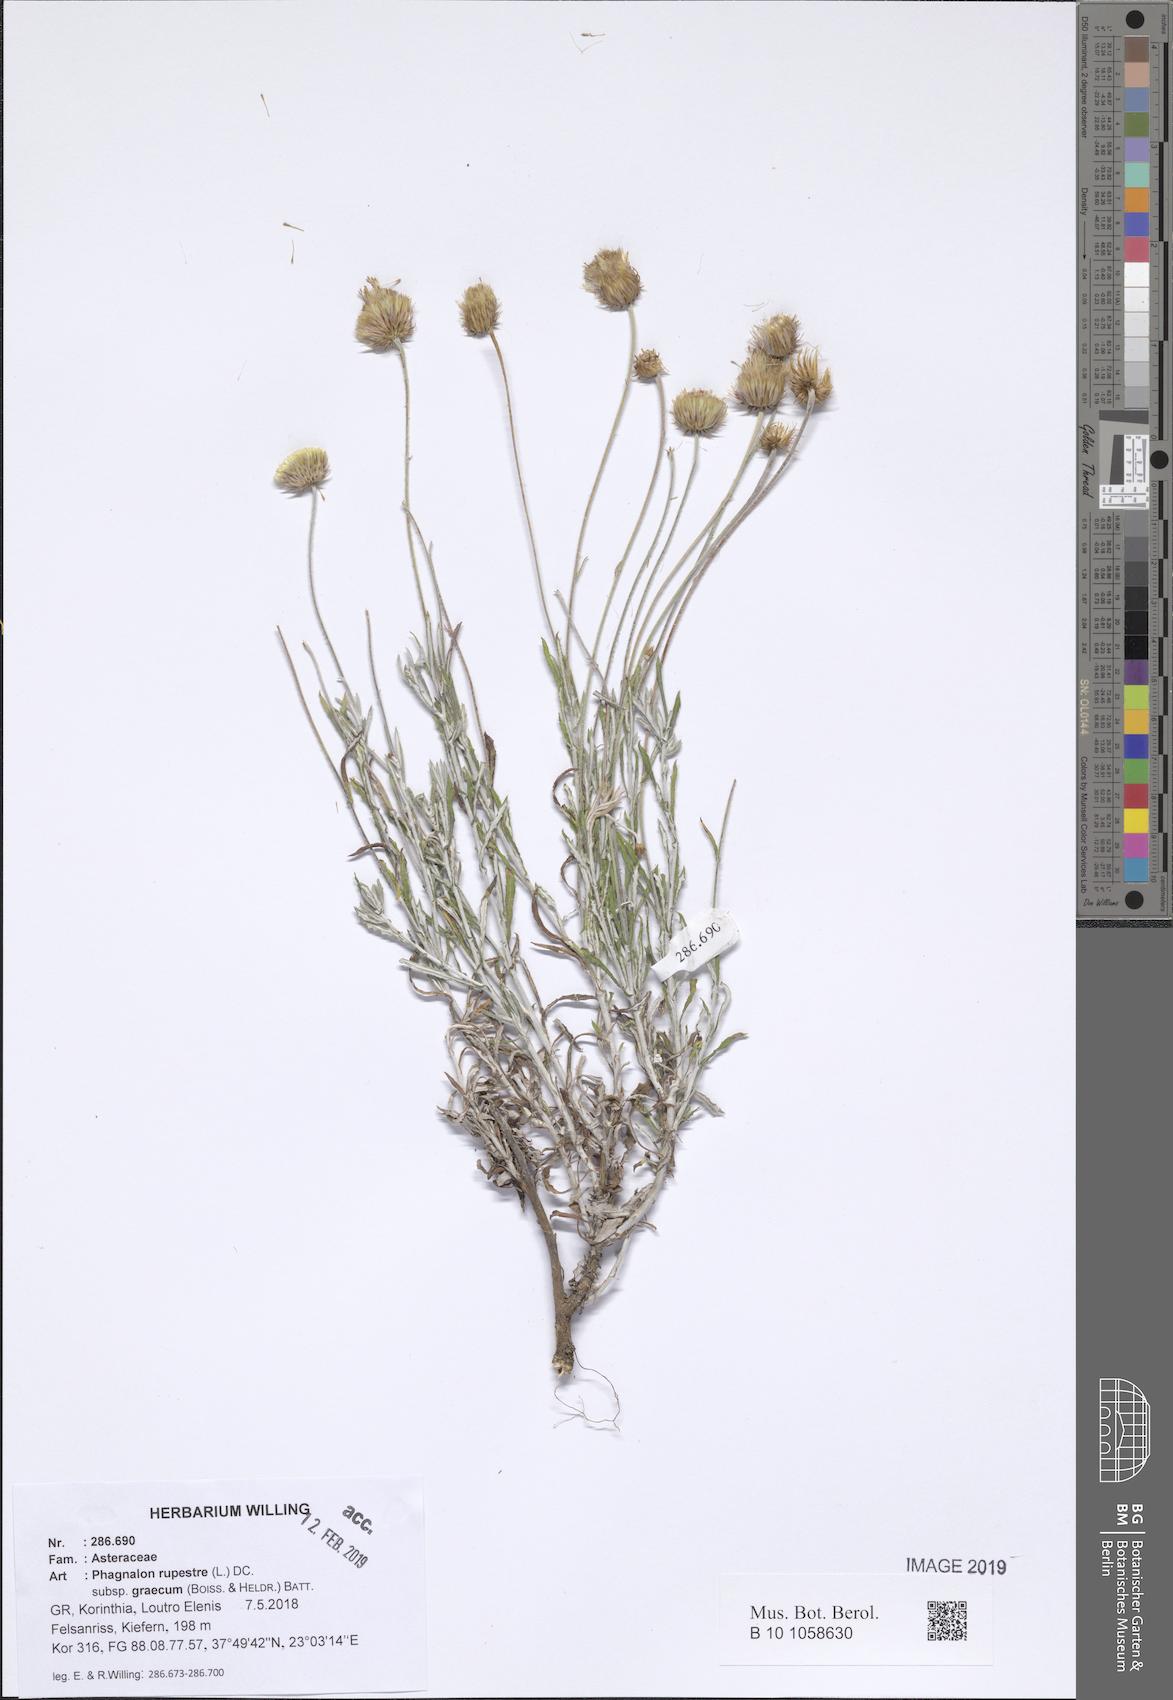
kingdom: Plantae
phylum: Tracheophyta
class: Magnoliopsida
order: Asterales
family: Asteraceae
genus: Phagnalon
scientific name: Phagnalon graecum
